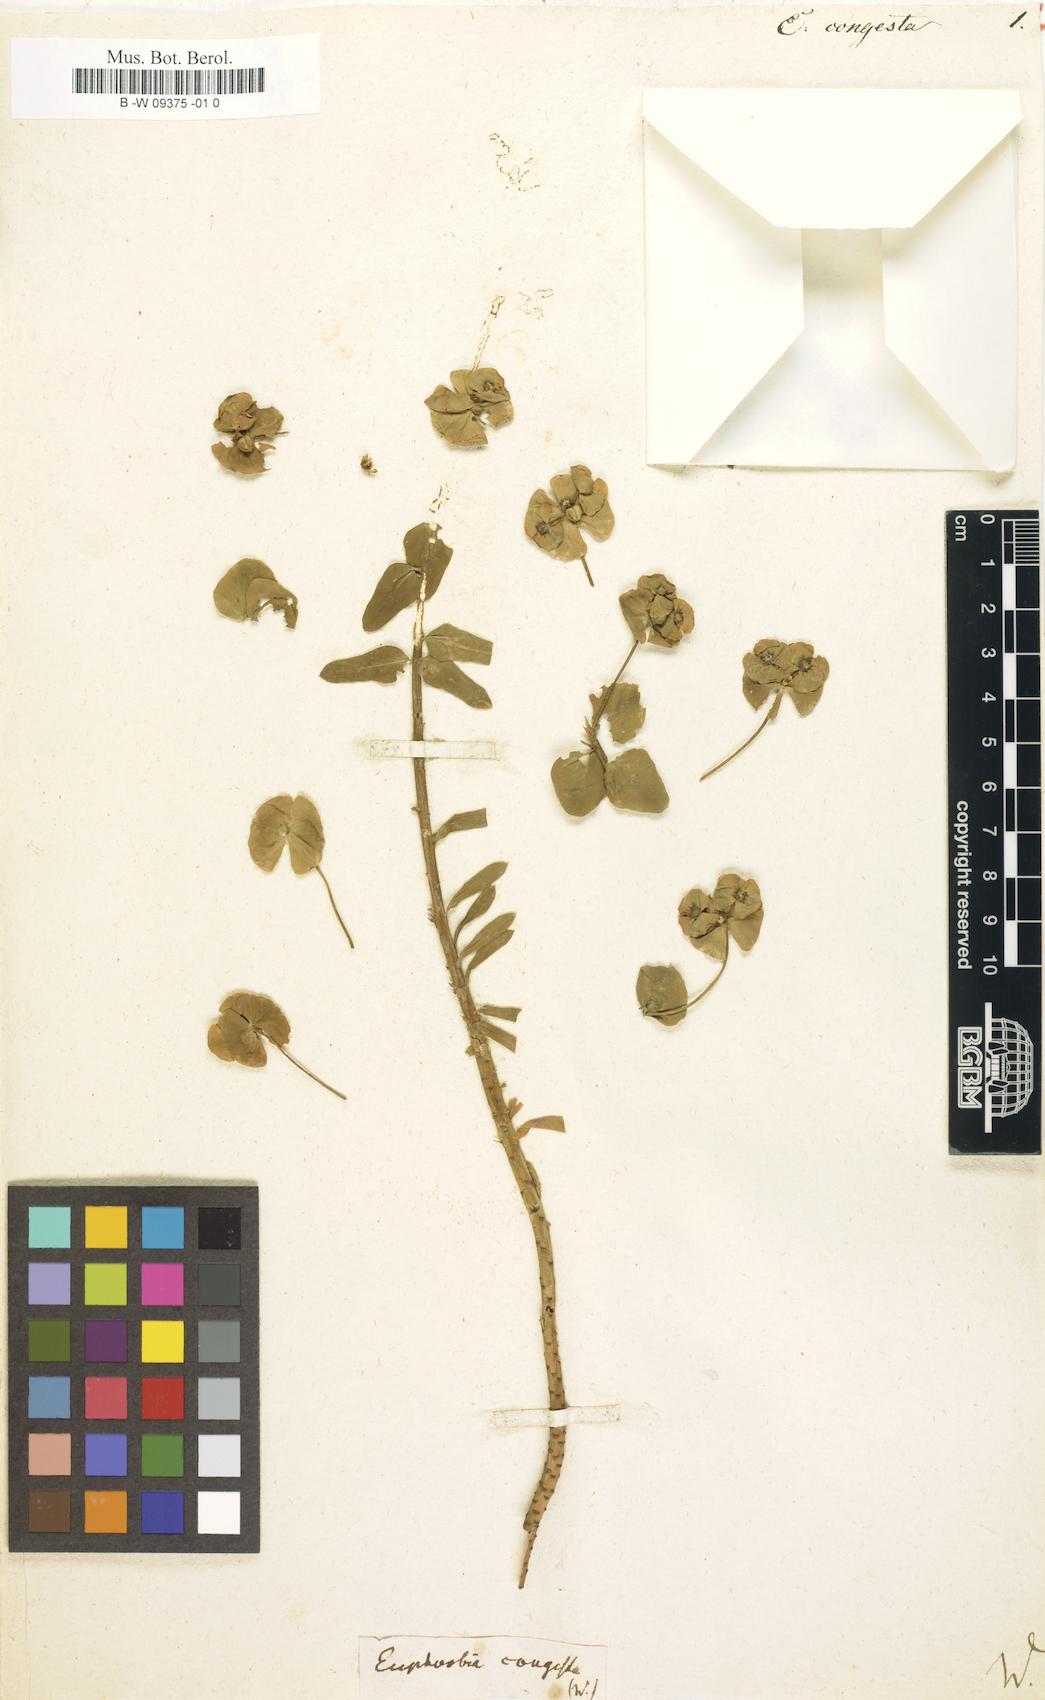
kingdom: Plantae
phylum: Tracheophyta
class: Magnoliopsida
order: Malpighiales
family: Euphorbiaceae
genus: Euphorbia
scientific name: Euphorbia segetalis
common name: Corn spurge
